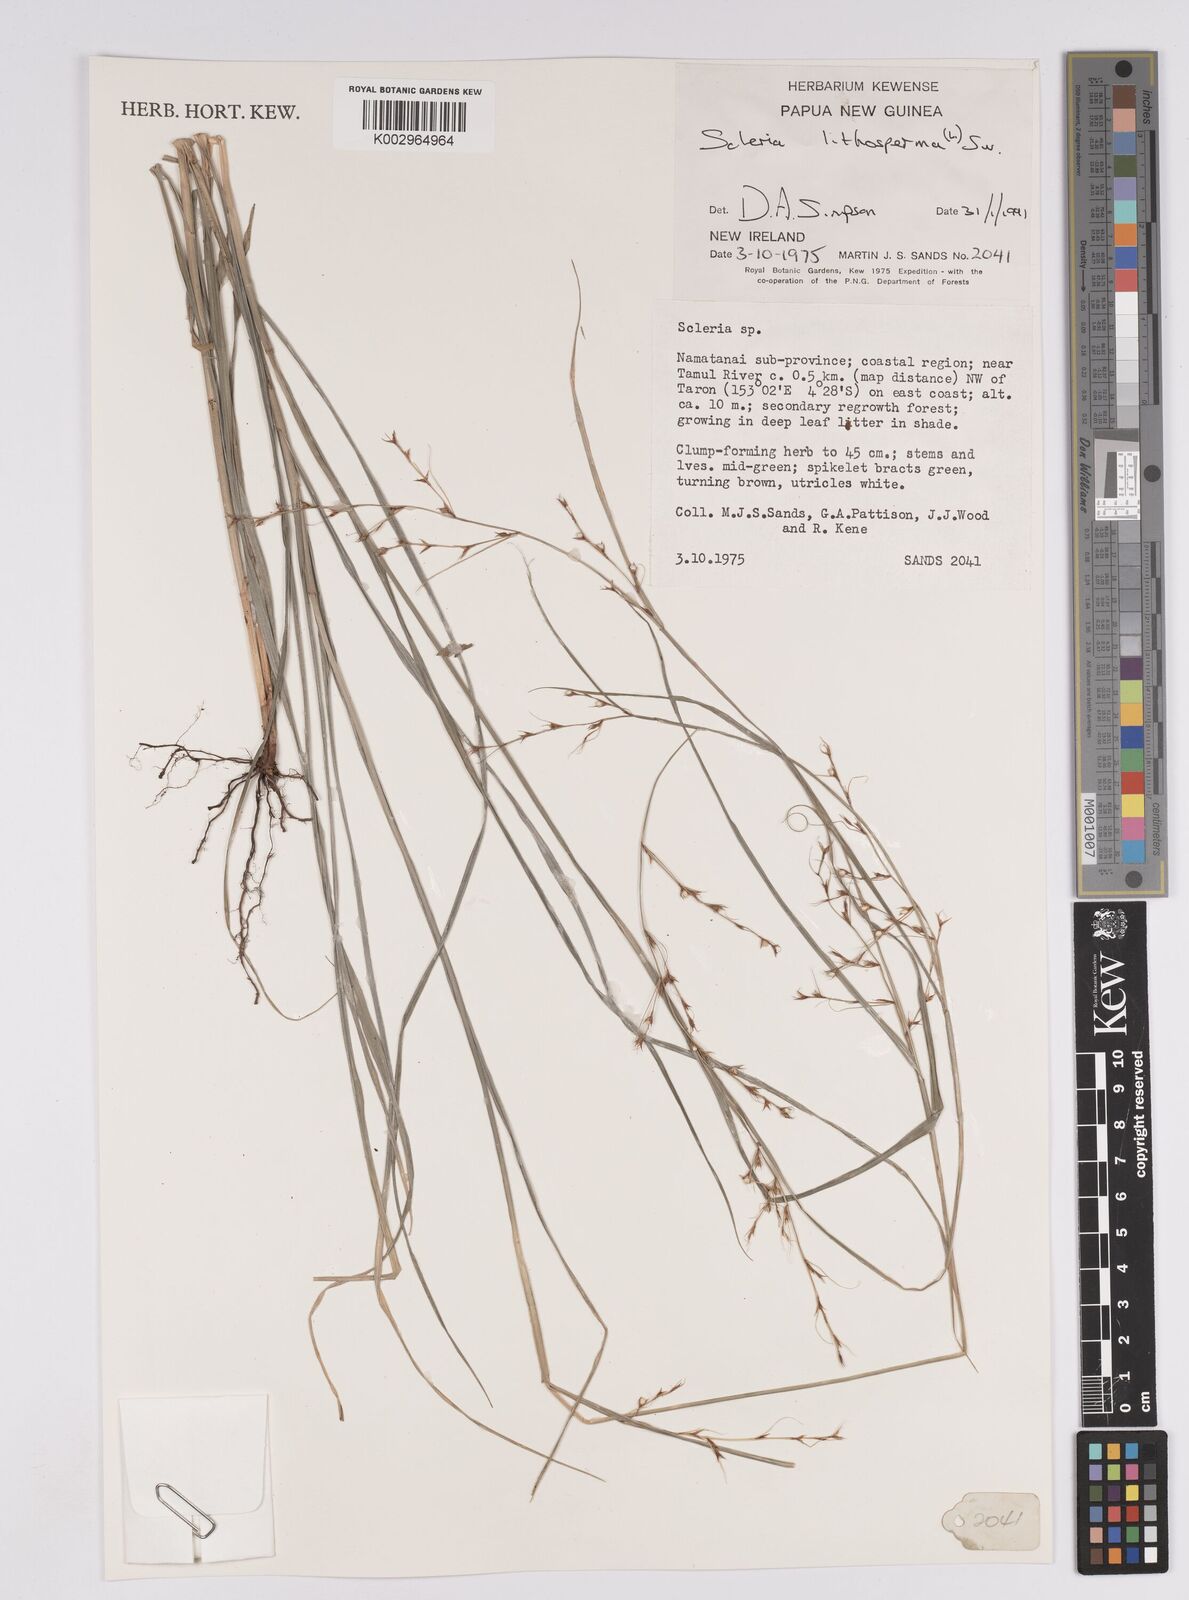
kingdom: Plantae
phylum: Tracheophyta
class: Liliopsida
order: Poales
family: Cyperaceae
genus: Scleria
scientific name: Scleria lithosperma
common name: Florida keys nut-rush
